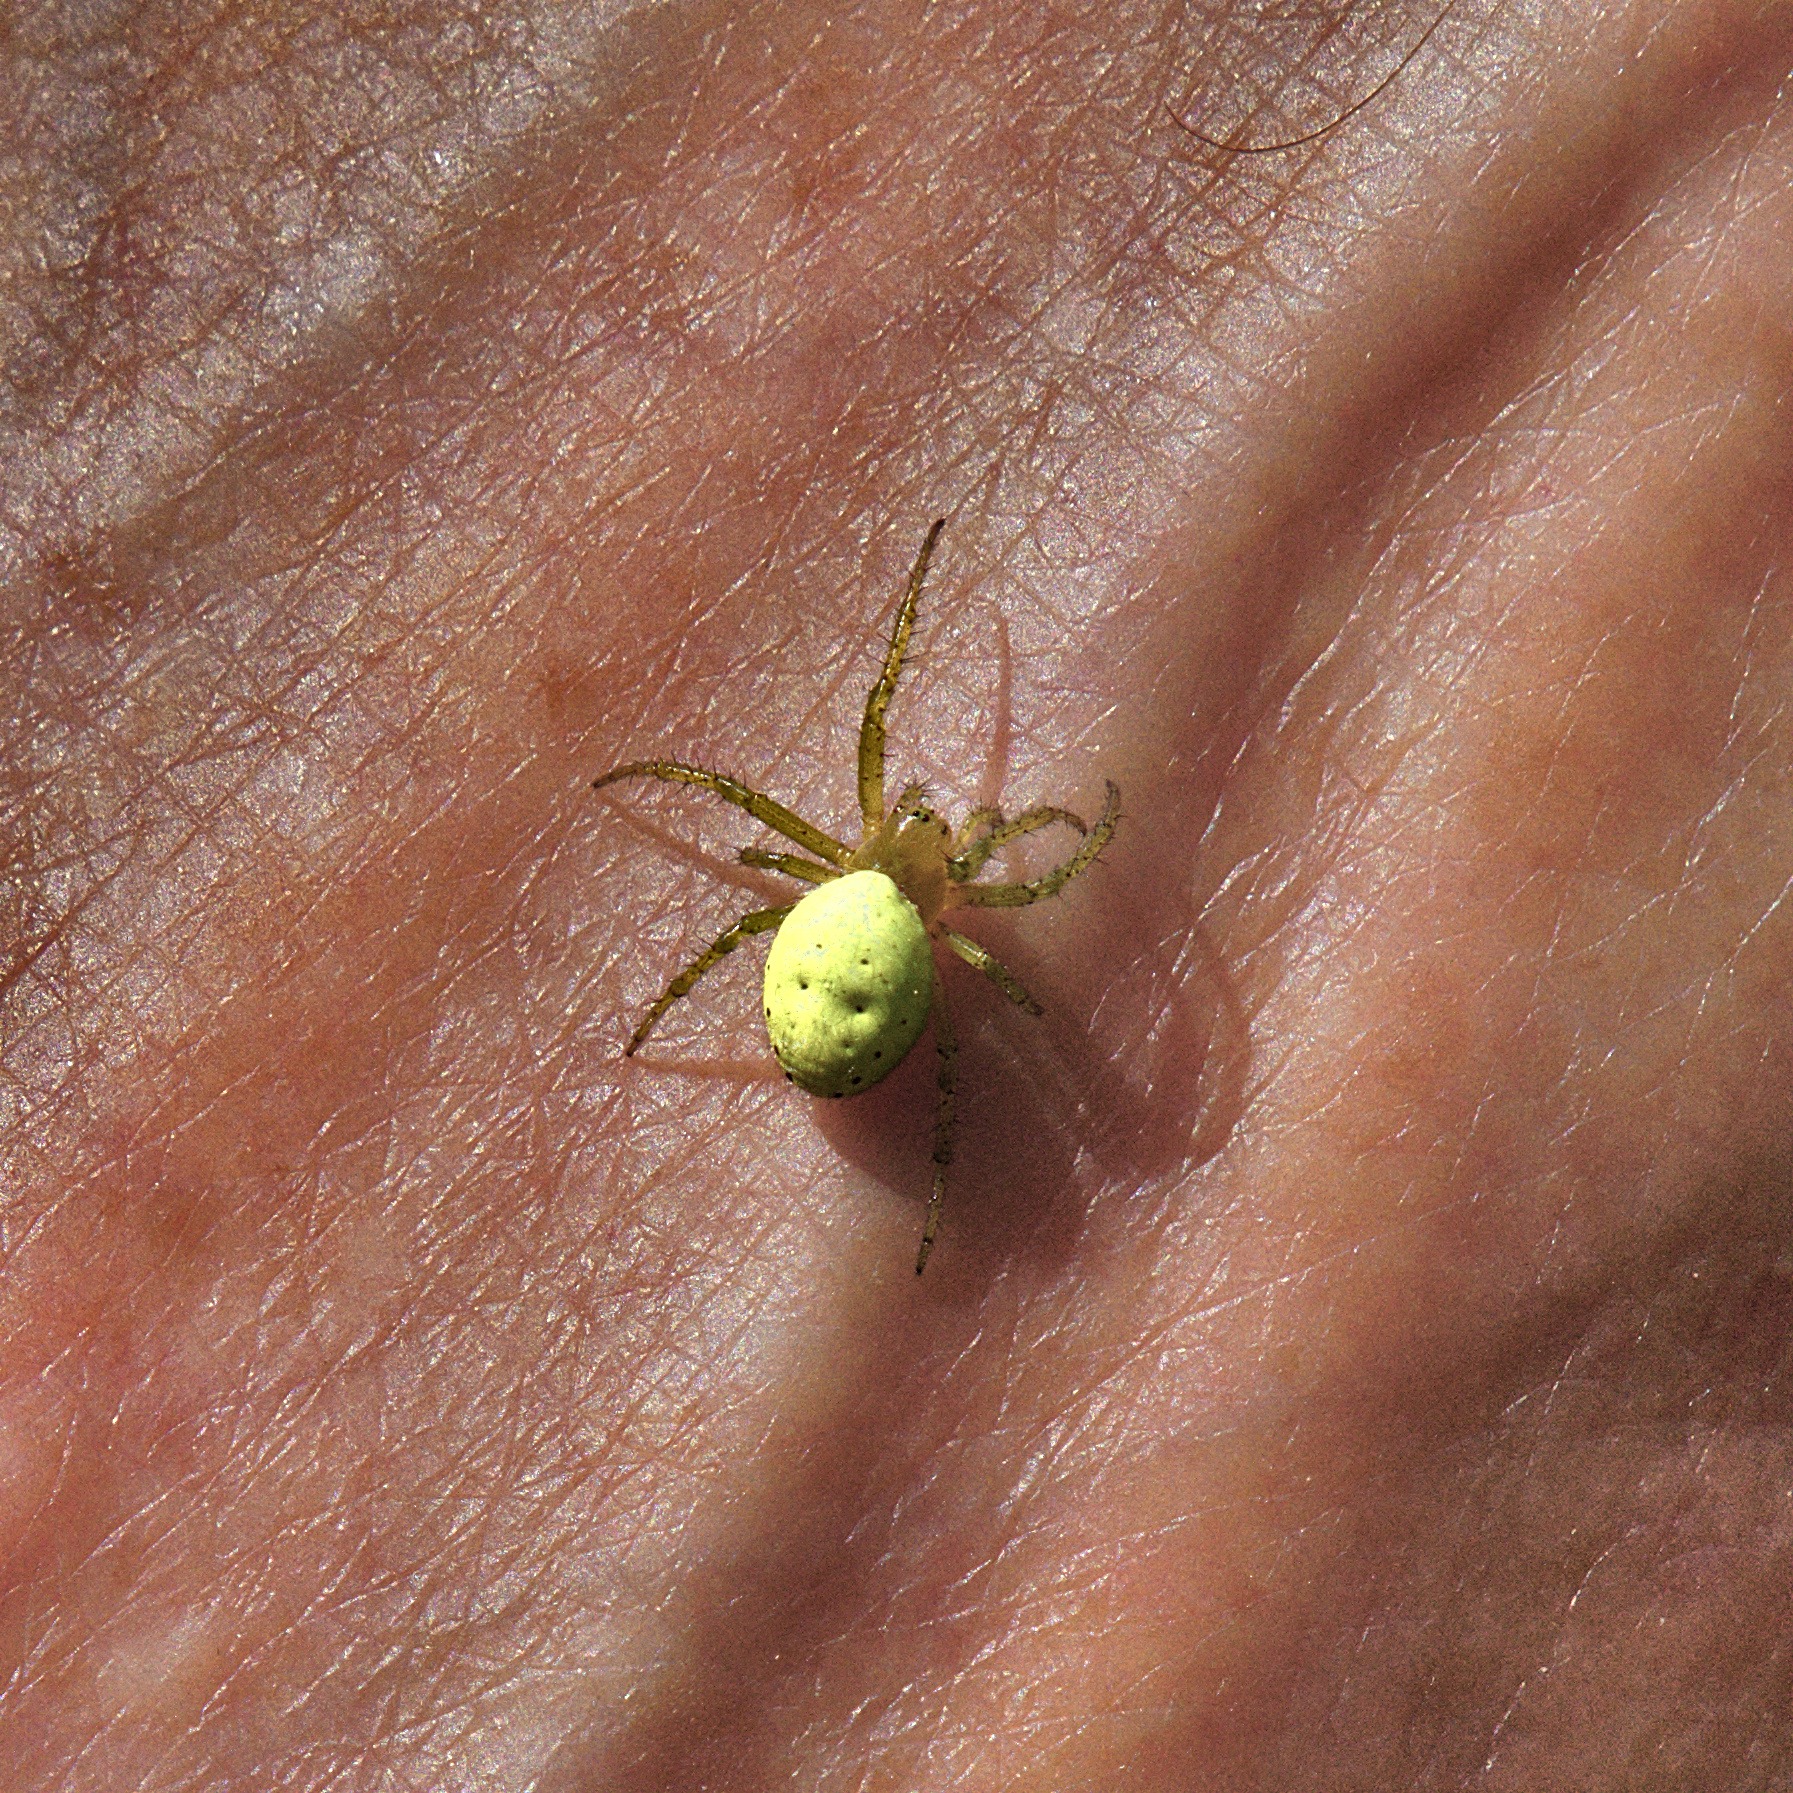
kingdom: Animalia
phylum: Arthropoda
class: Arachnida
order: Araneae
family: Araneidae
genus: Araniella
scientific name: Araniella
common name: Agurkeedderkopslægten
